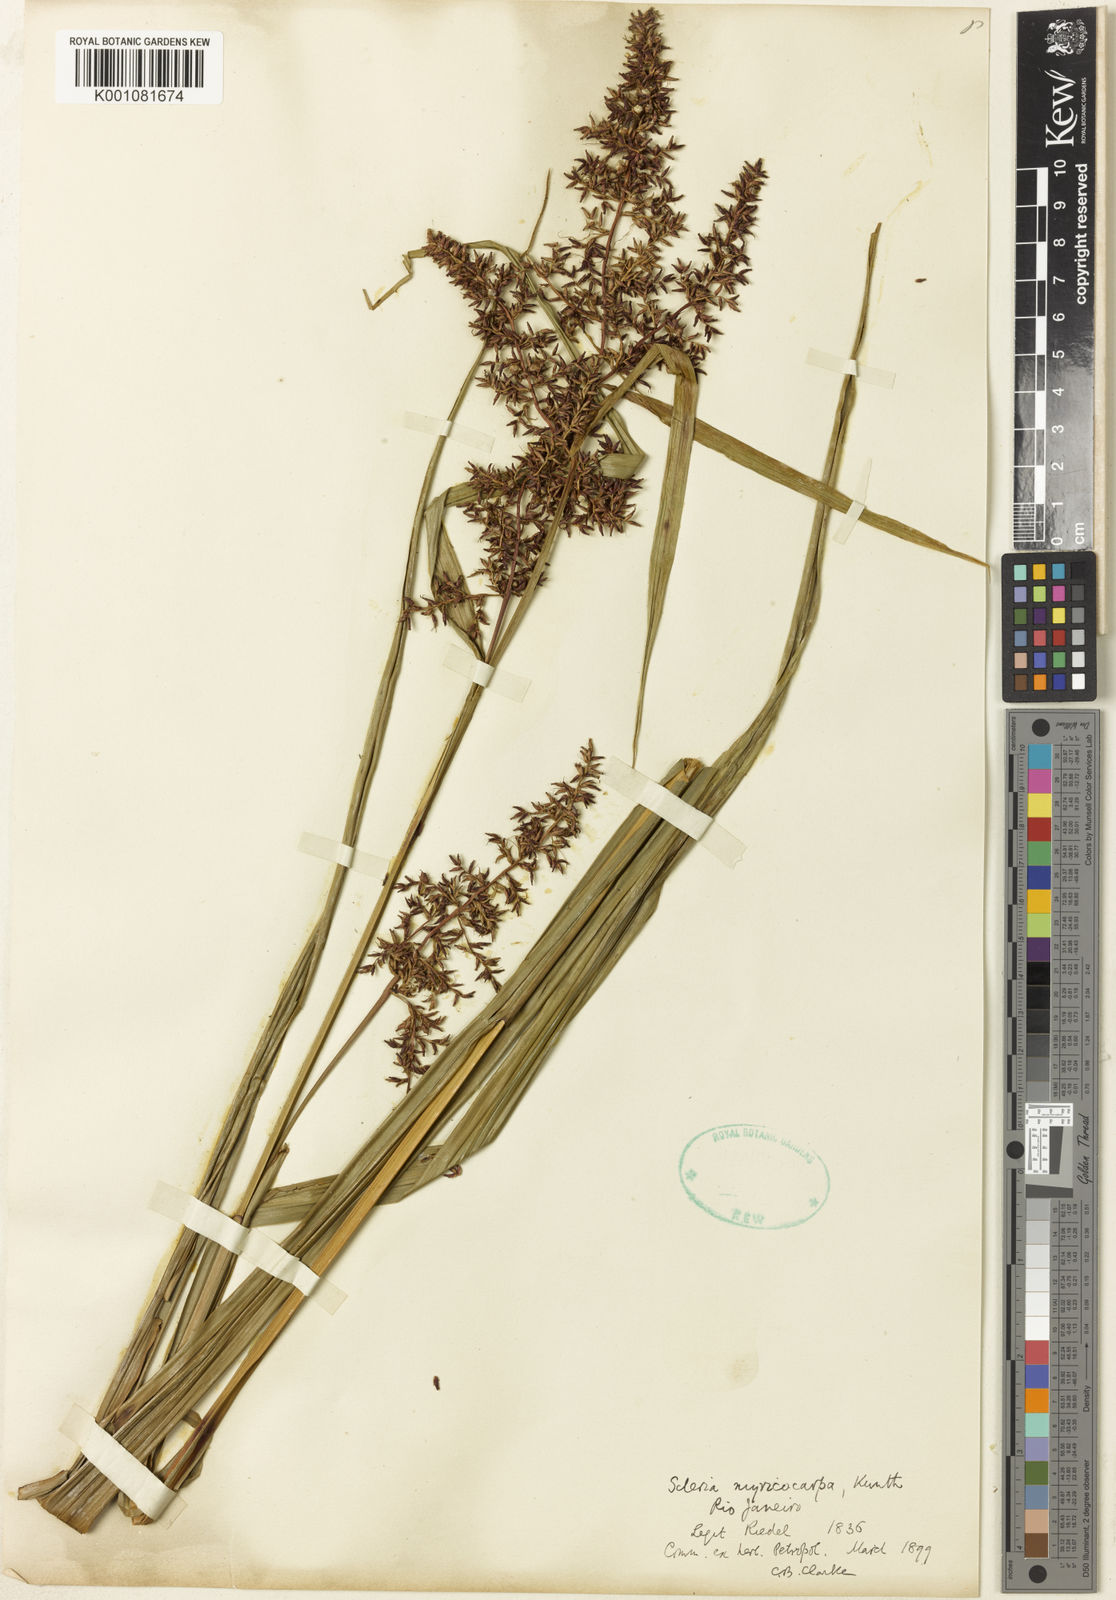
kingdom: Plantae
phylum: Tracheophyta
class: Liliopsida
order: Poales
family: Cyperaceae
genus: Scleria
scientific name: Scleria myricocarpa
